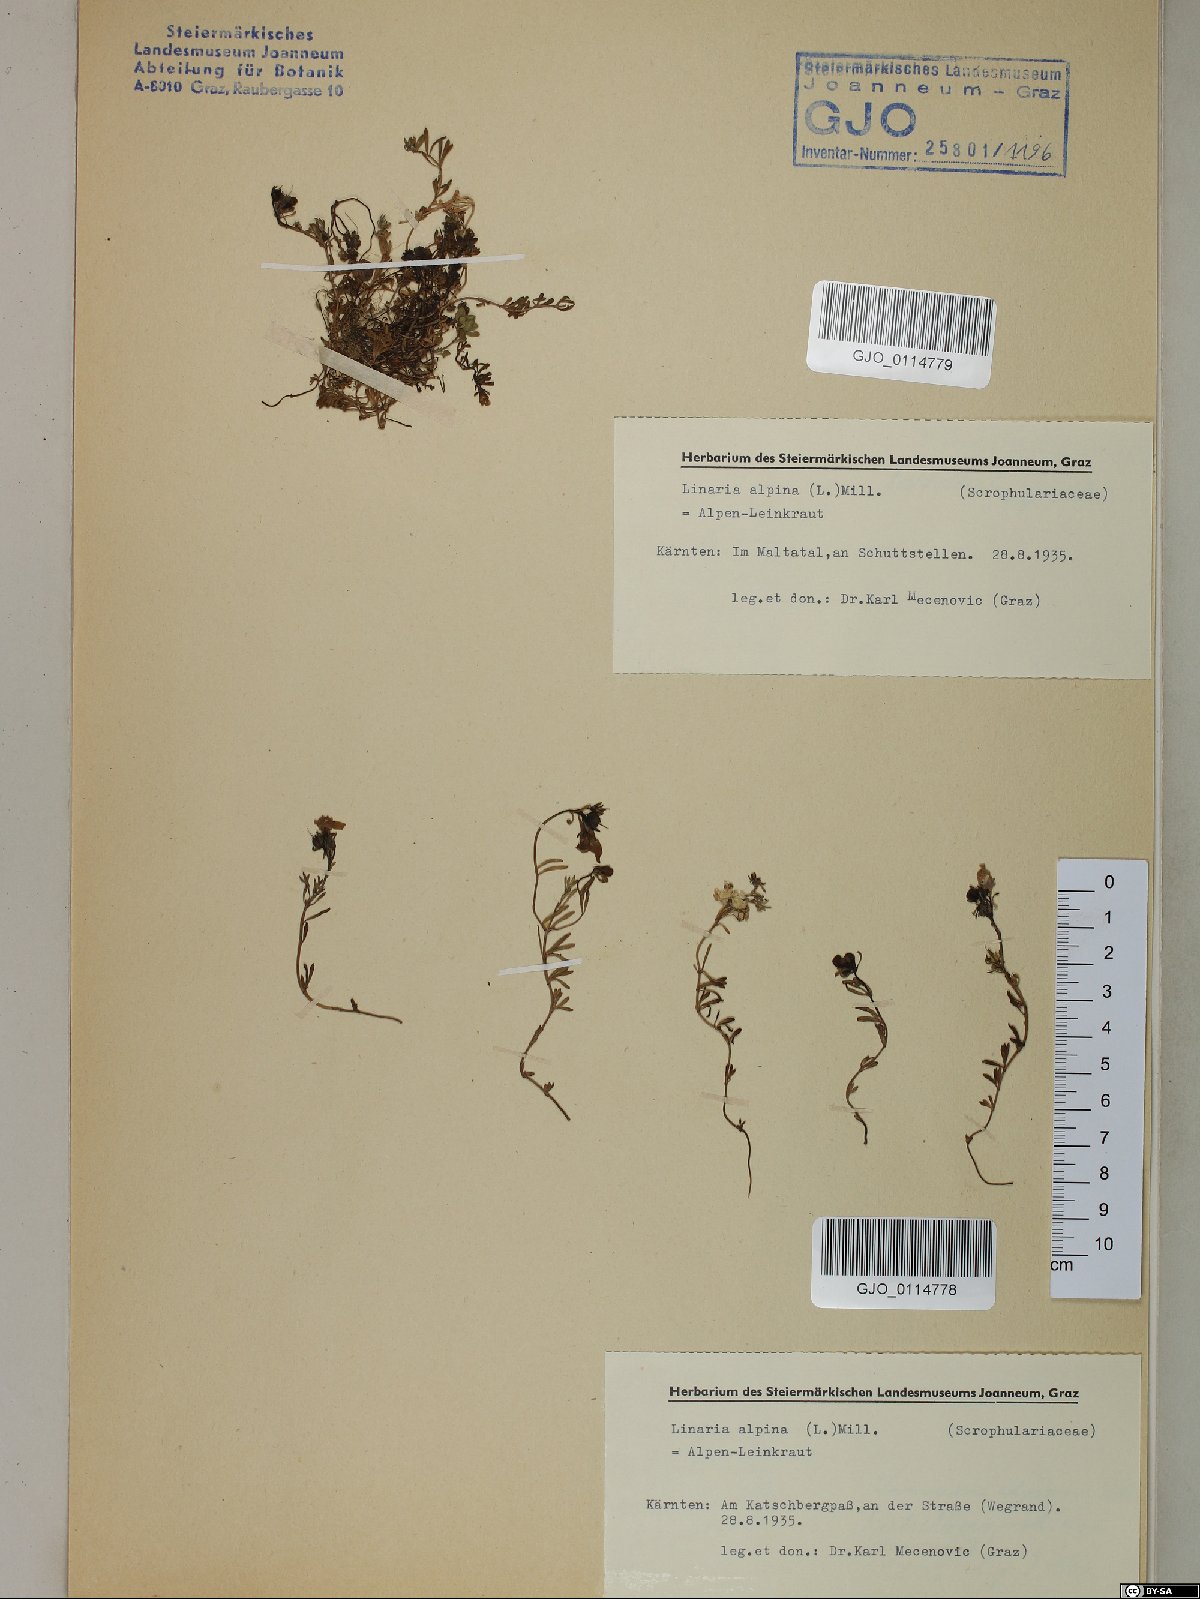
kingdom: Plantae
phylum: Tracheophyta
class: Magnoliopsida
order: Lamiales
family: Plantaginaceae
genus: Linaria
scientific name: Linaria alpina
